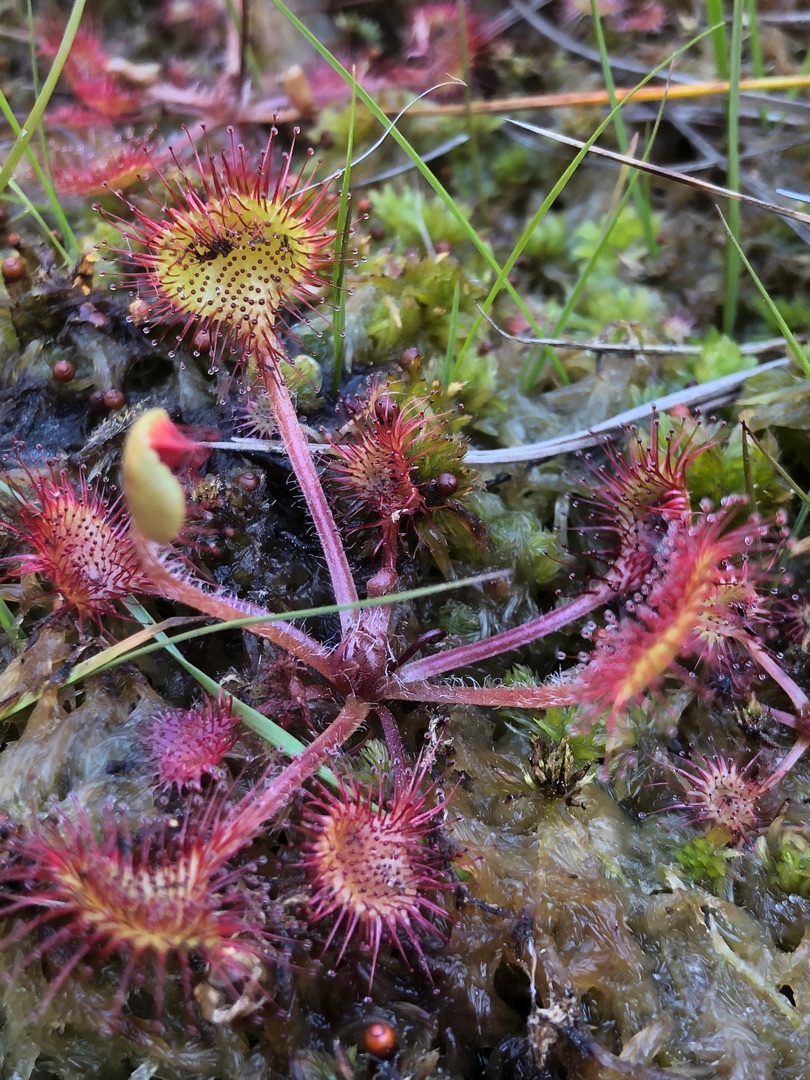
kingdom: Plantae
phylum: Tracheophyta
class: Magnoliopsida
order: Caryophyllales
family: Droseraceae
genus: Drosera
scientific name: Drosera rotundifolia
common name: Rundbladet soldug
